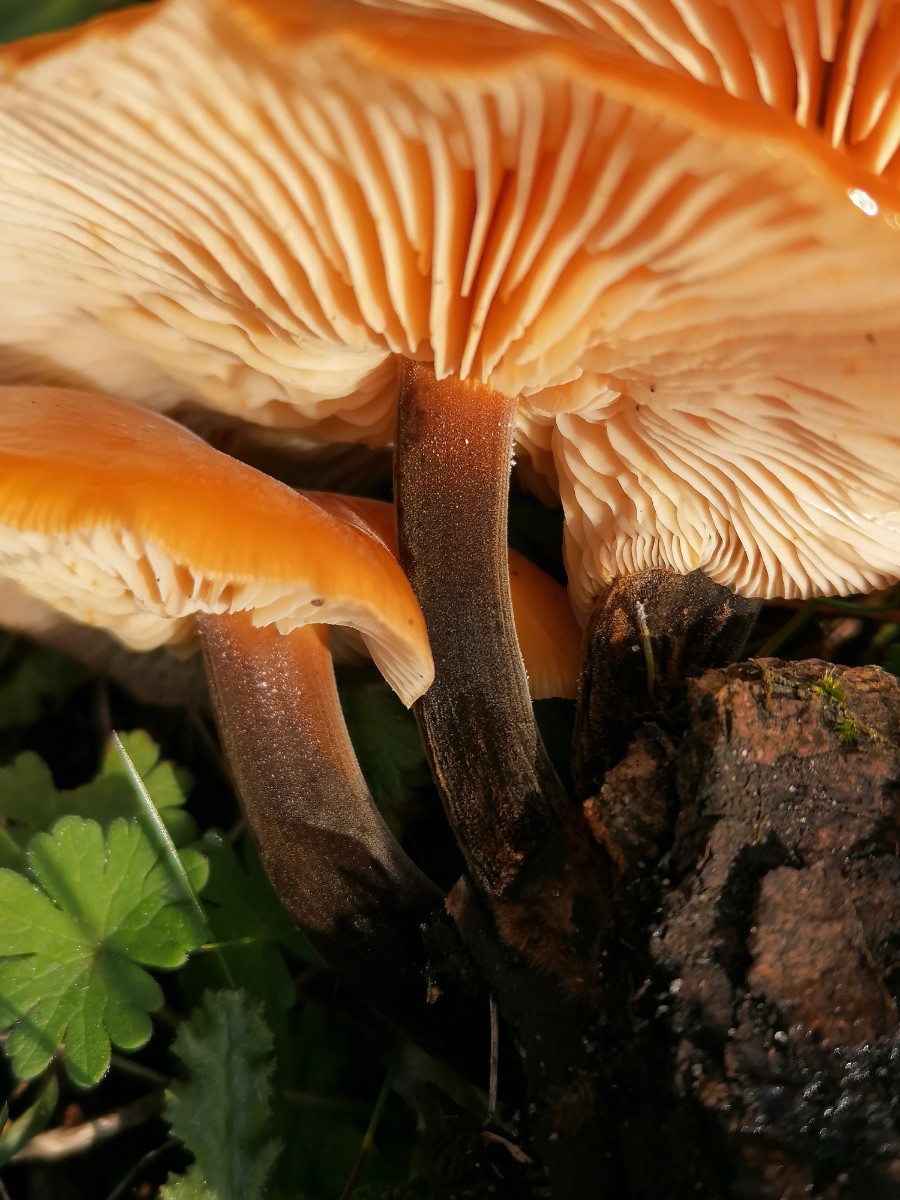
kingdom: Fungi
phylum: Basidiomycota
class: Agaricomycetes
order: Agaricales
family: Physalacriaceae
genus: Flammulina
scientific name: Flammulina velutipes
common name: gul fløjlsfod
